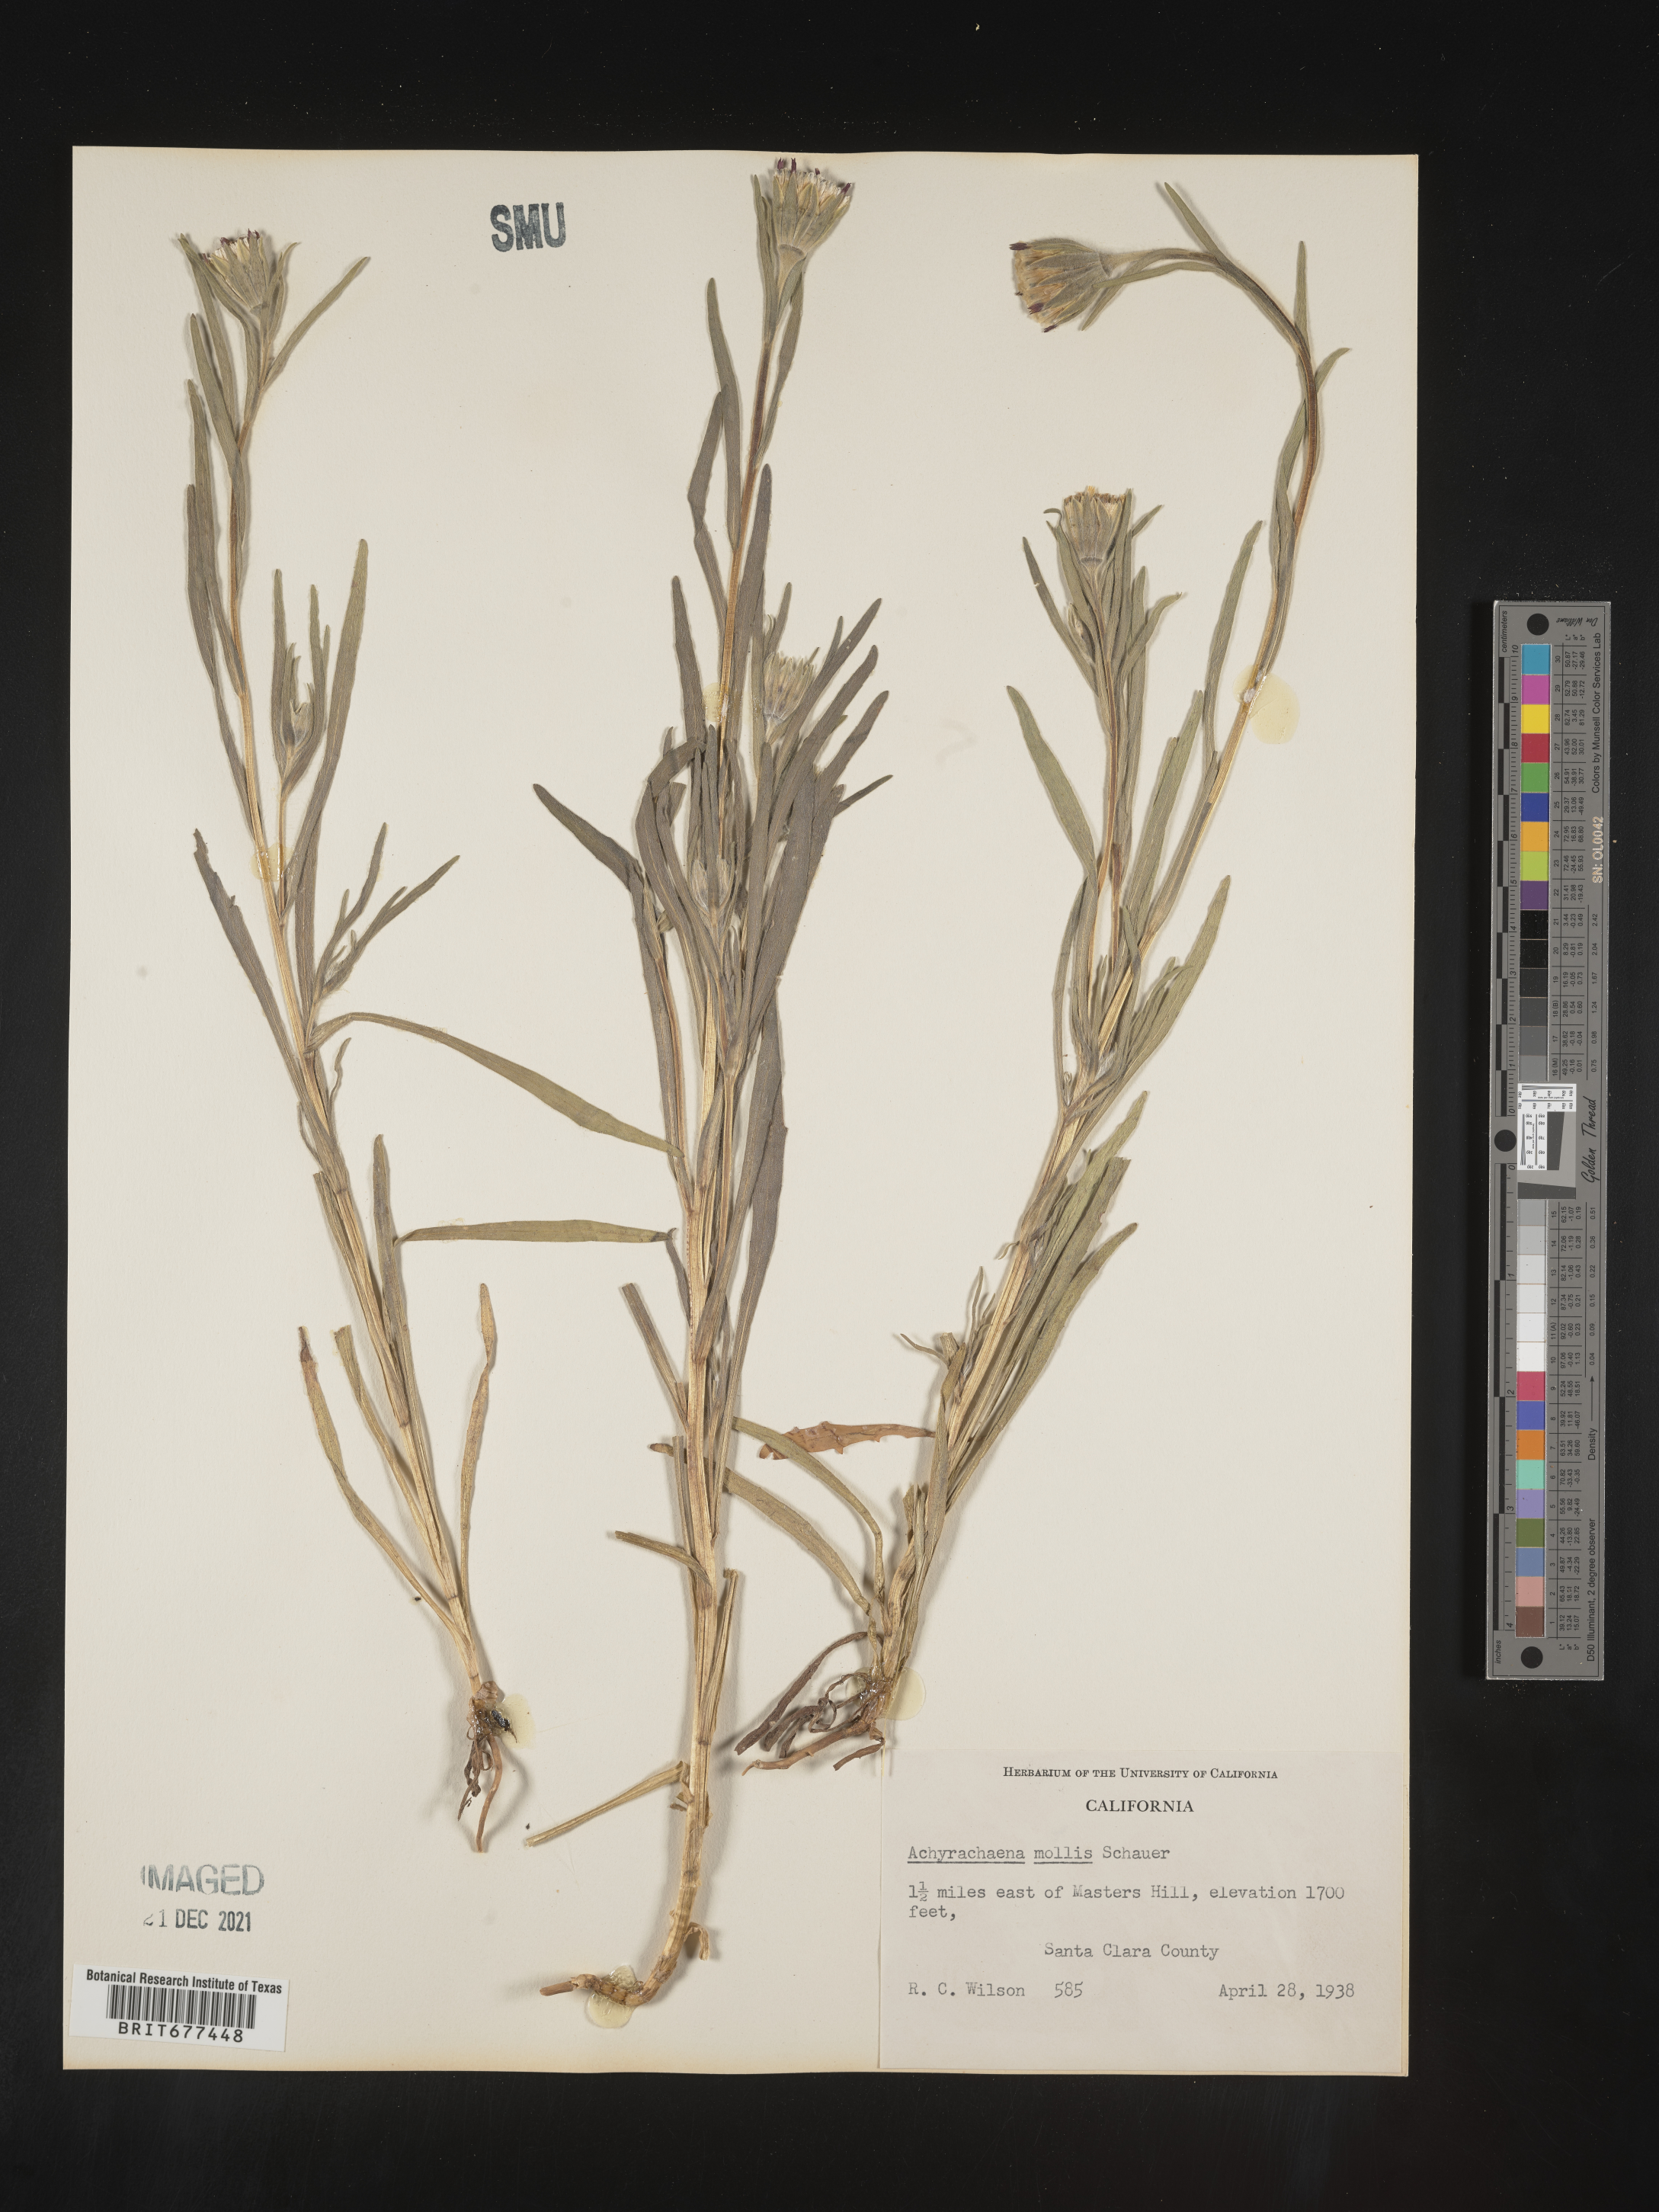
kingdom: Plantae
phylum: Tracheophyta
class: Magnoliopsida
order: Asterales
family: Asteraceae
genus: Achyrachaena
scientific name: Achyrachaena mollis
